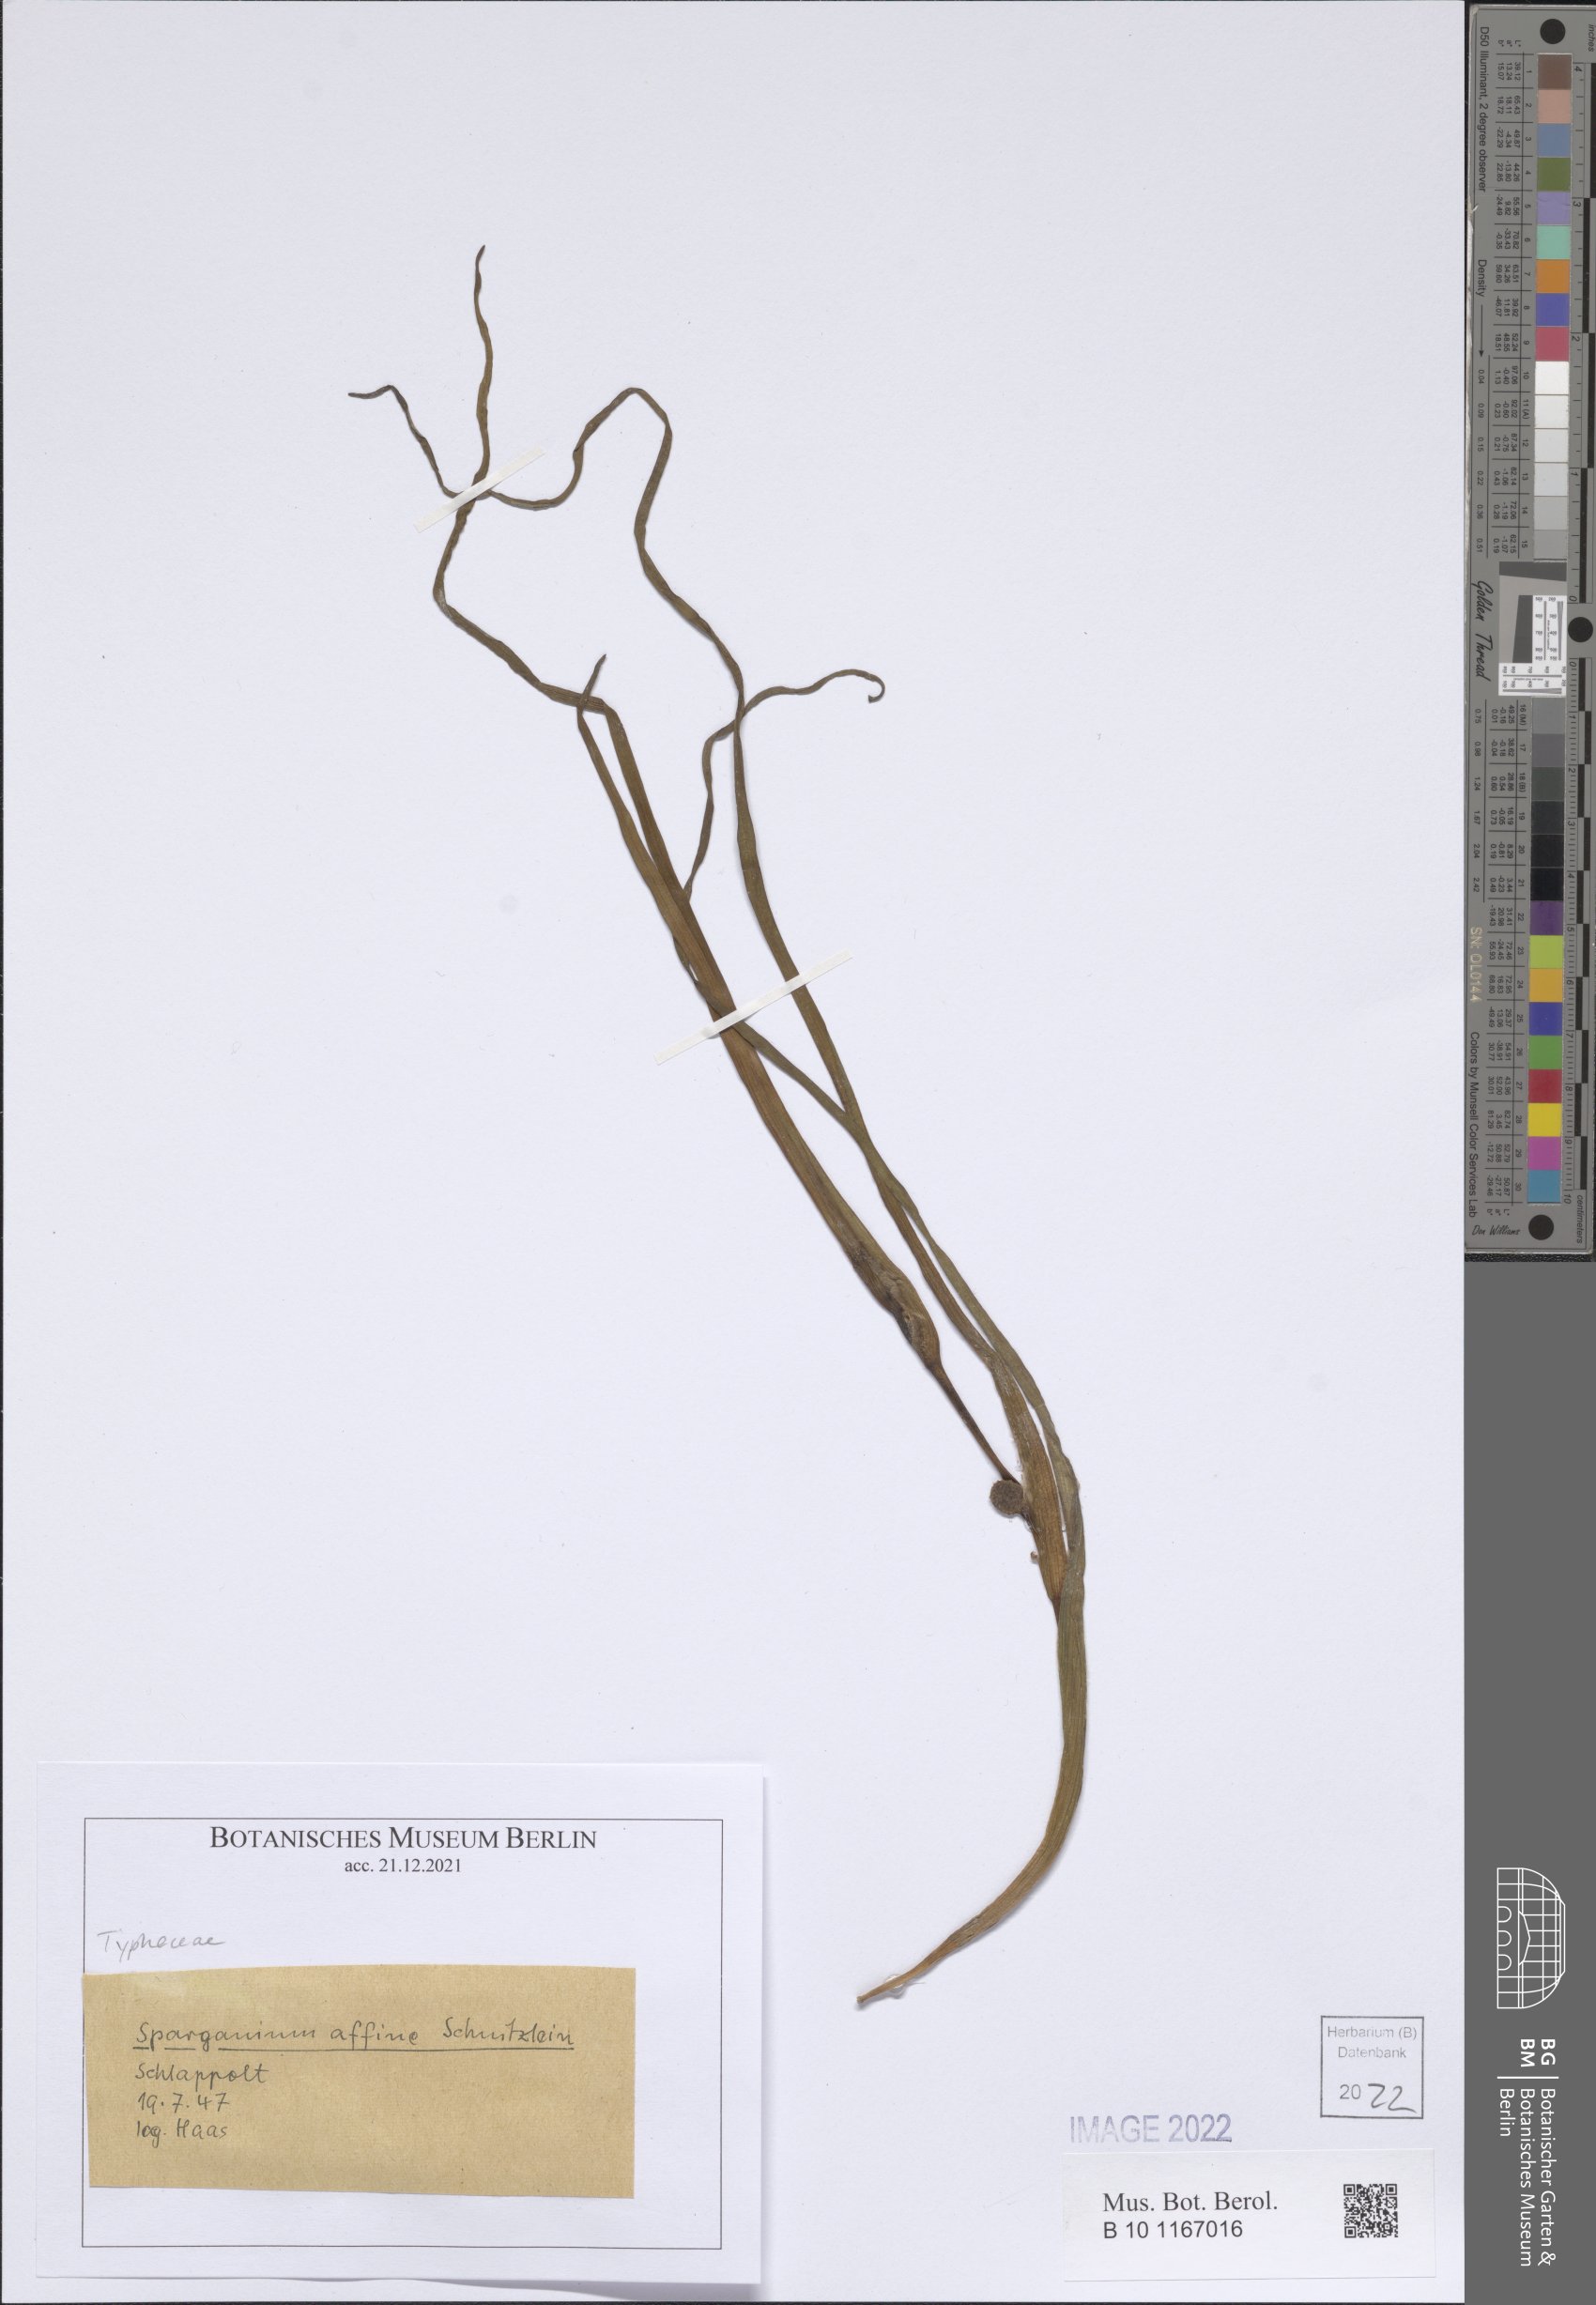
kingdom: Plantae
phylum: Tracheophyta
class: Liliopsida
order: Poales
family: Typhaceae
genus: Sparganium
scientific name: Sparganium angustifolium
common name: Floating bur-reed
